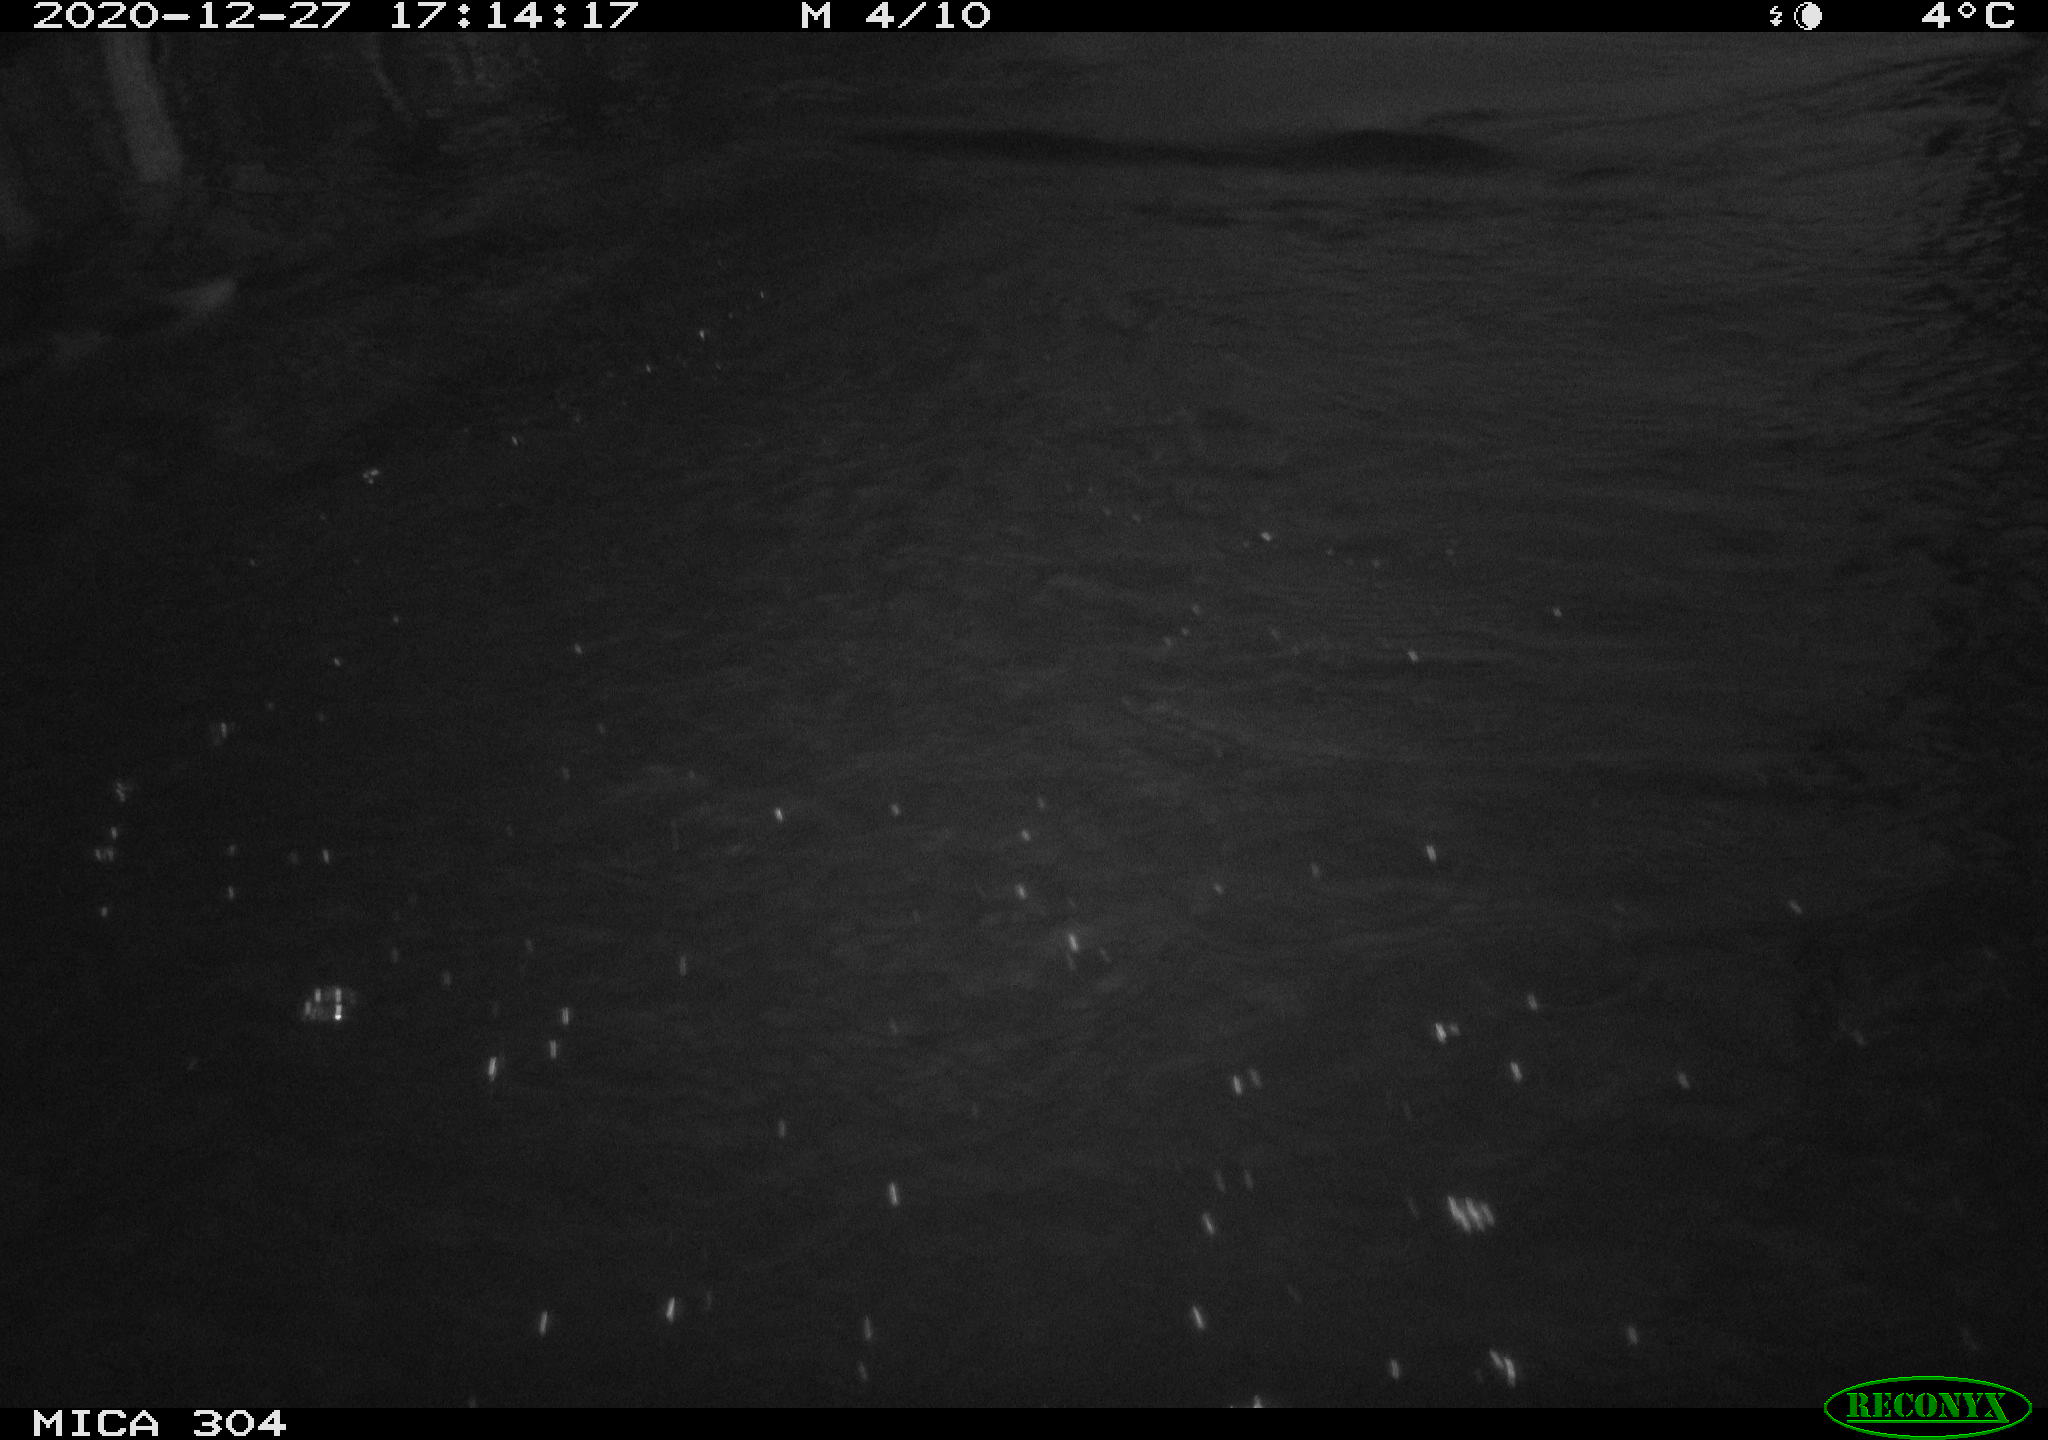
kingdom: Animalia
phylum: Chordata
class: Aves
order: Gruiformes
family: Rallidae
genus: Gallinula
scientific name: Gallinula chloropus
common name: Common moorhen
